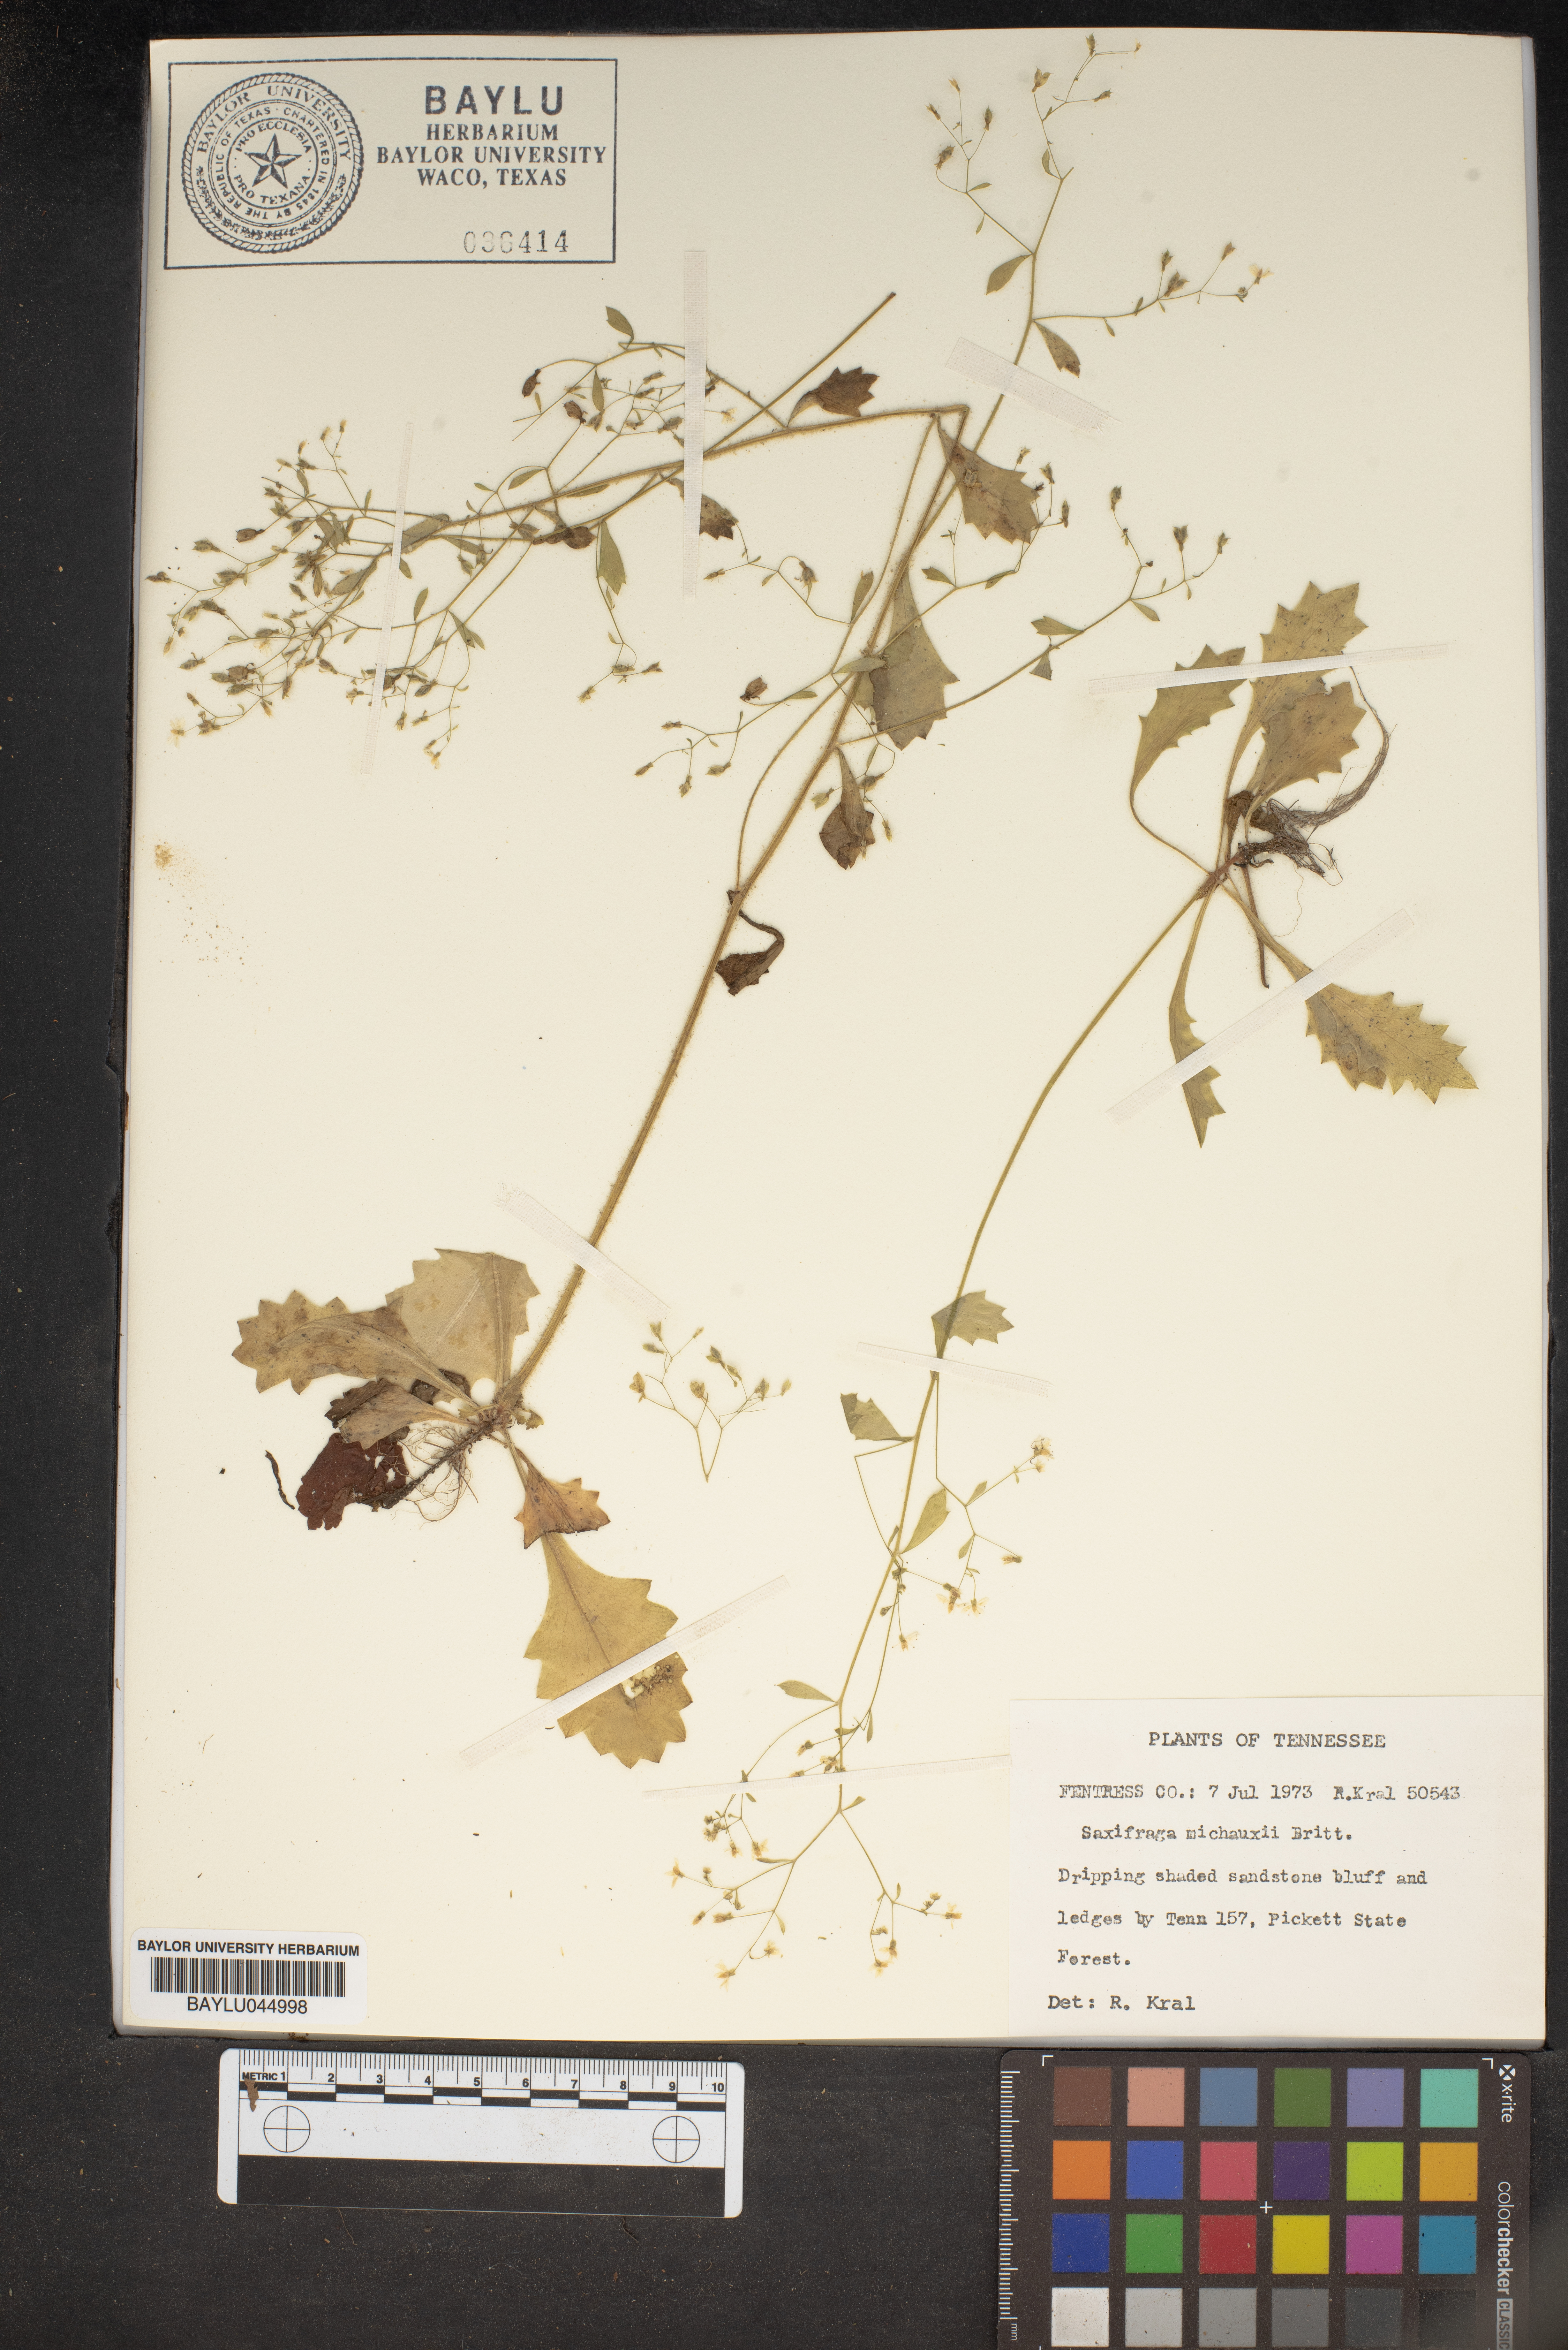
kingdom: Plantae
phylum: Tracheophyta
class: Magnoliopsida
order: Saxifragales
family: Saxifragaceae
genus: Micranthes
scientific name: Micranthes petiolaris
